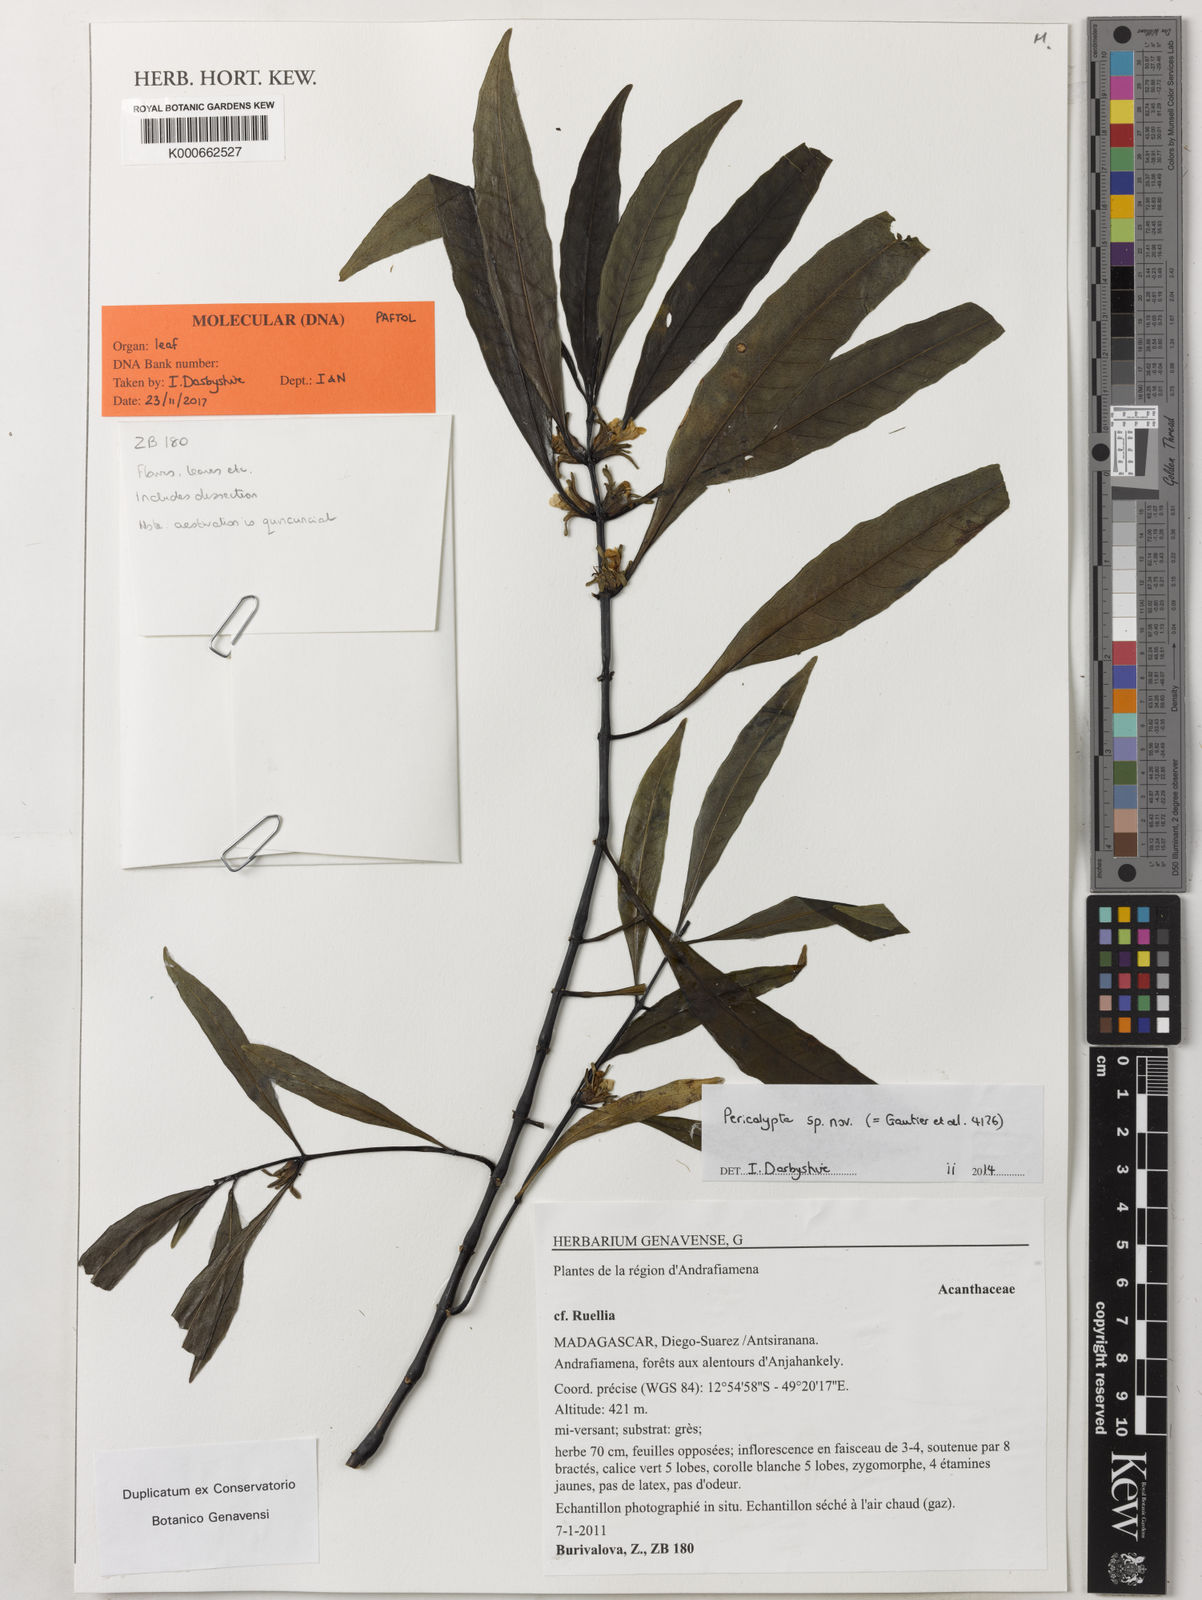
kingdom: Plantae
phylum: Tracheophyta
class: Magnoliopsida
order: Lamiales
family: Acanthaceae
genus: Pericalypta
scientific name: Pericalypta
